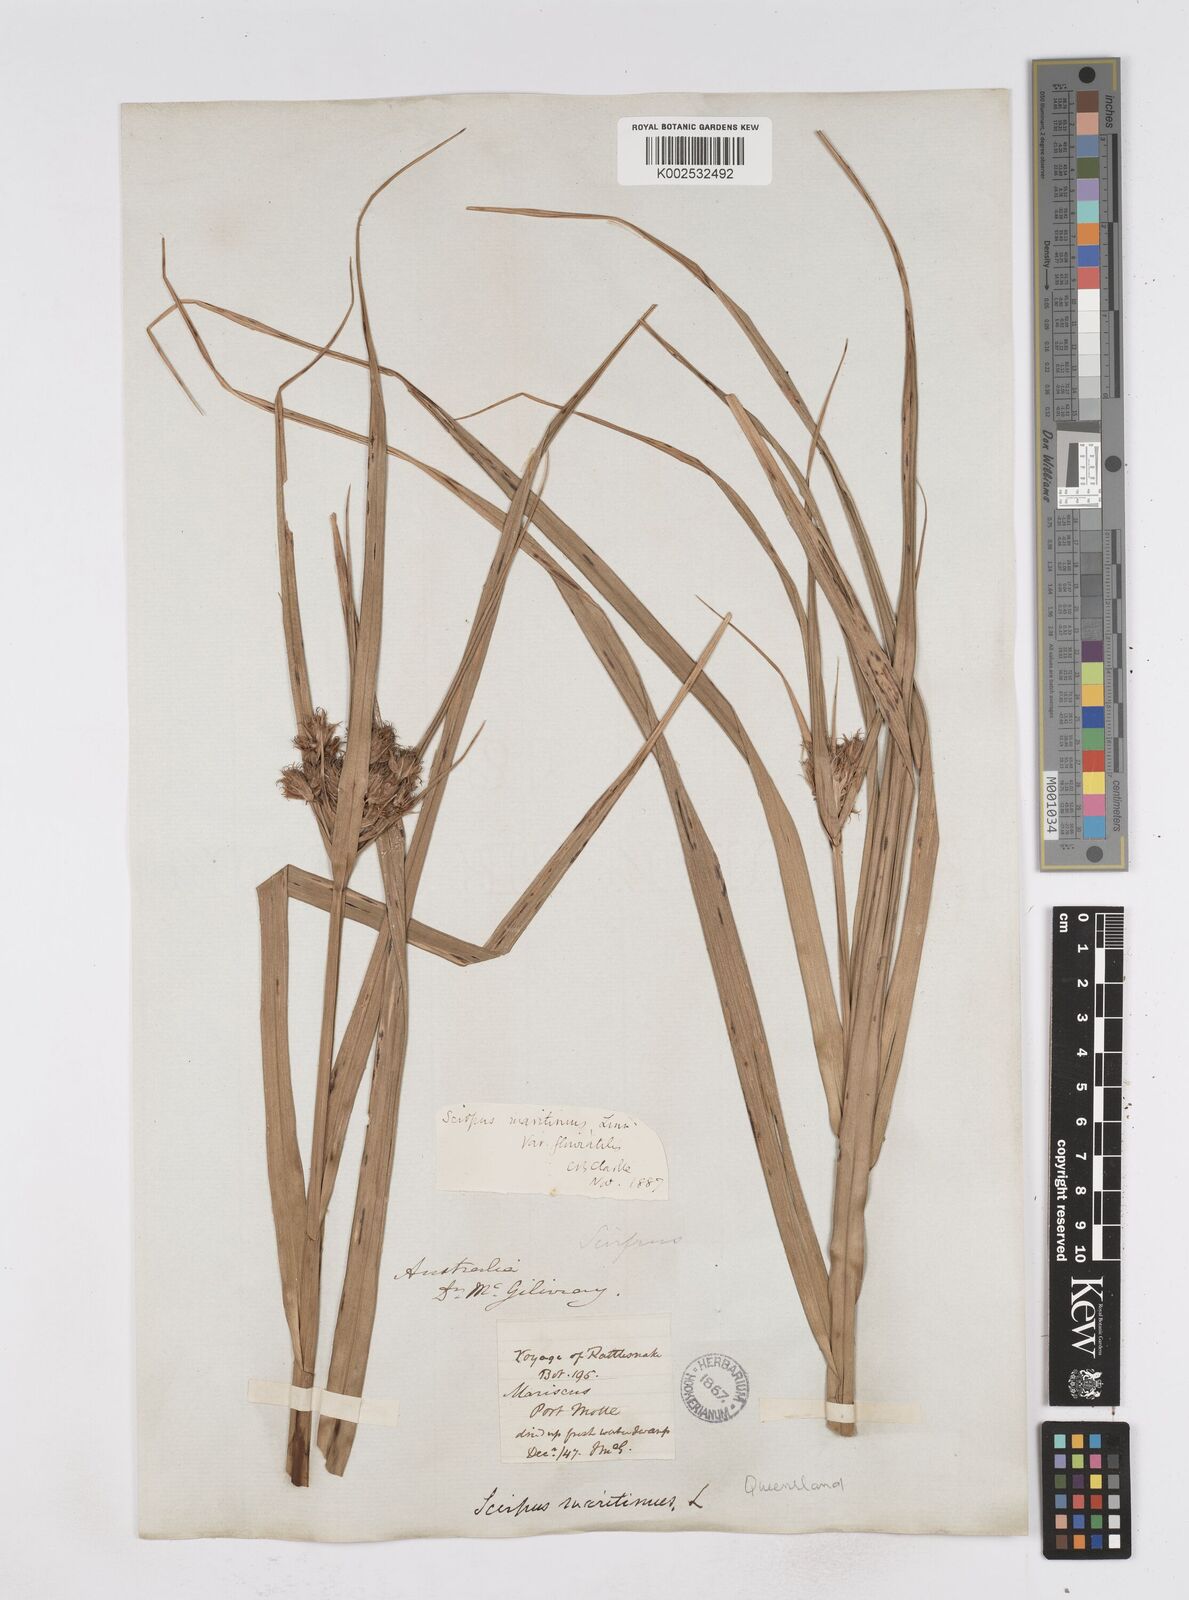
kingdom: Plantae
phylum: Tracheophyta
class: Liliopsida
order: Poales
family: Cyperaceae
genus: Bolboschoenus
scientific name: Bolboschoenus maritimus
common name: Sea club-rush
